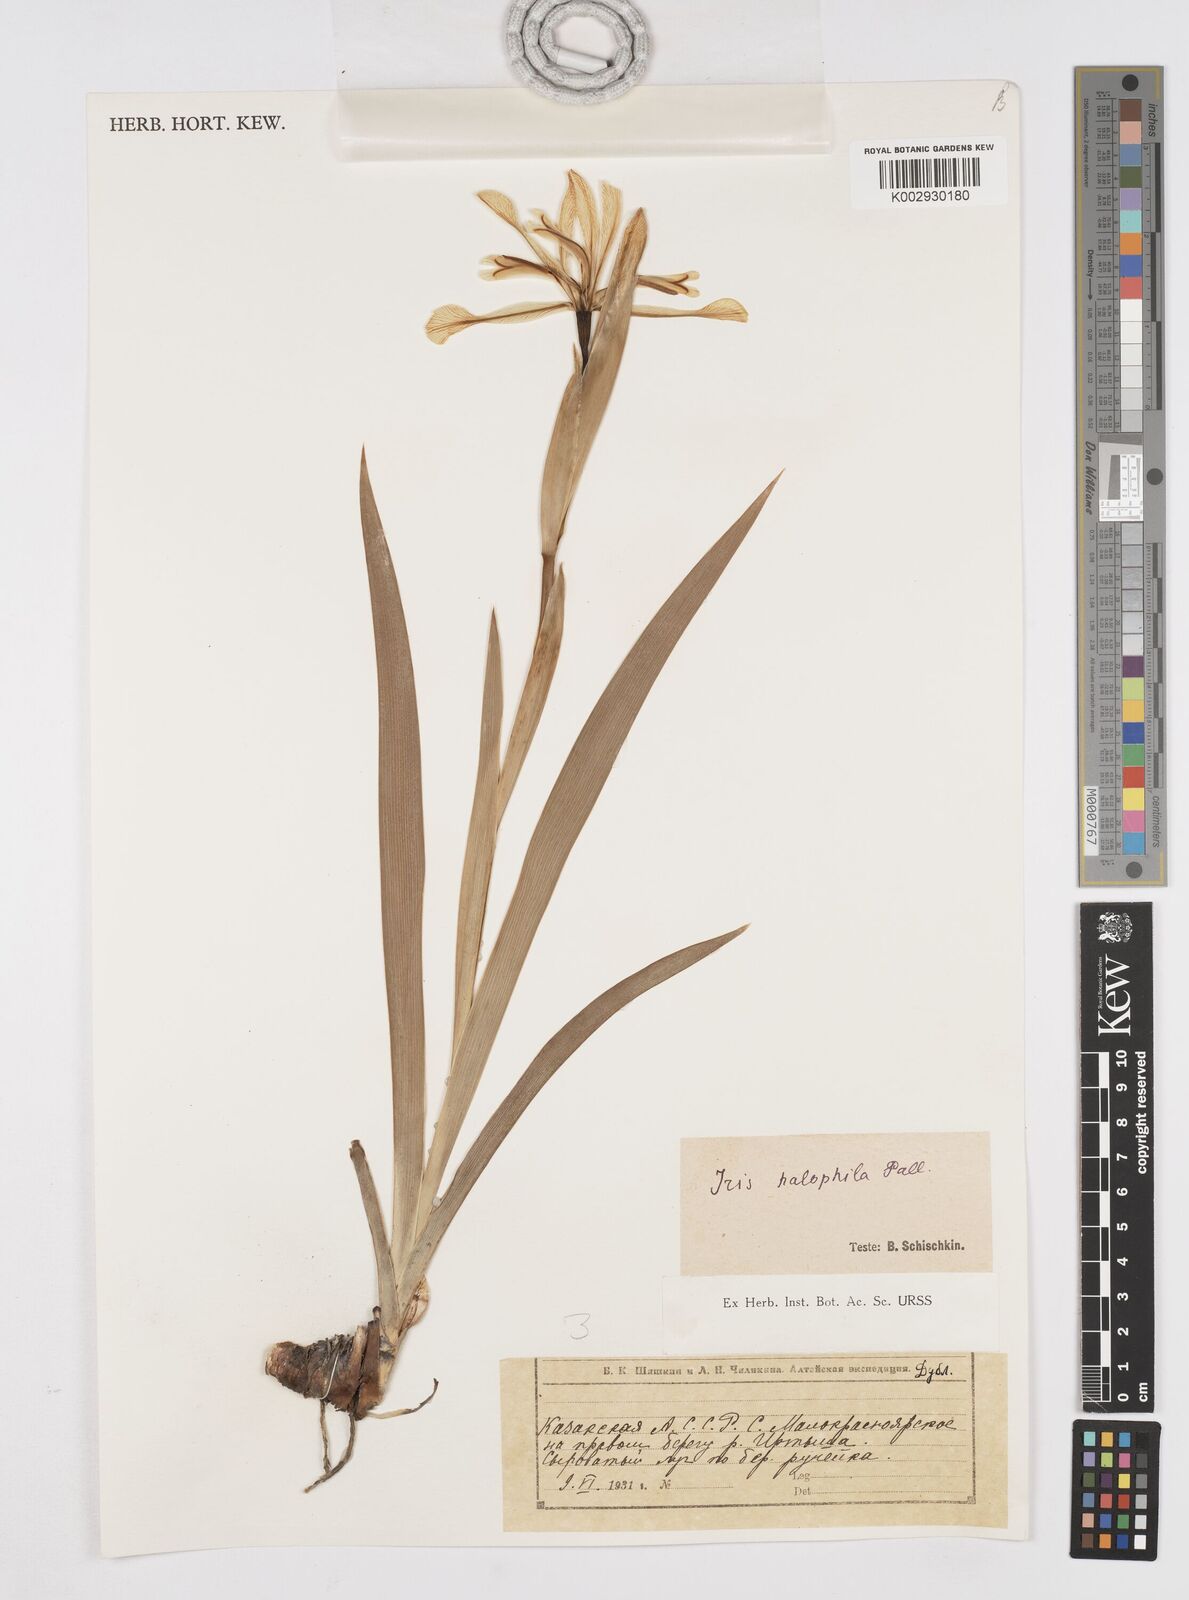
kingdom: Plantae
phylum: Tracheophyta
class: Liliopsida
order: Asparagales
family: Iridaceae
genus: Iris
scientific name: Iris halophila
